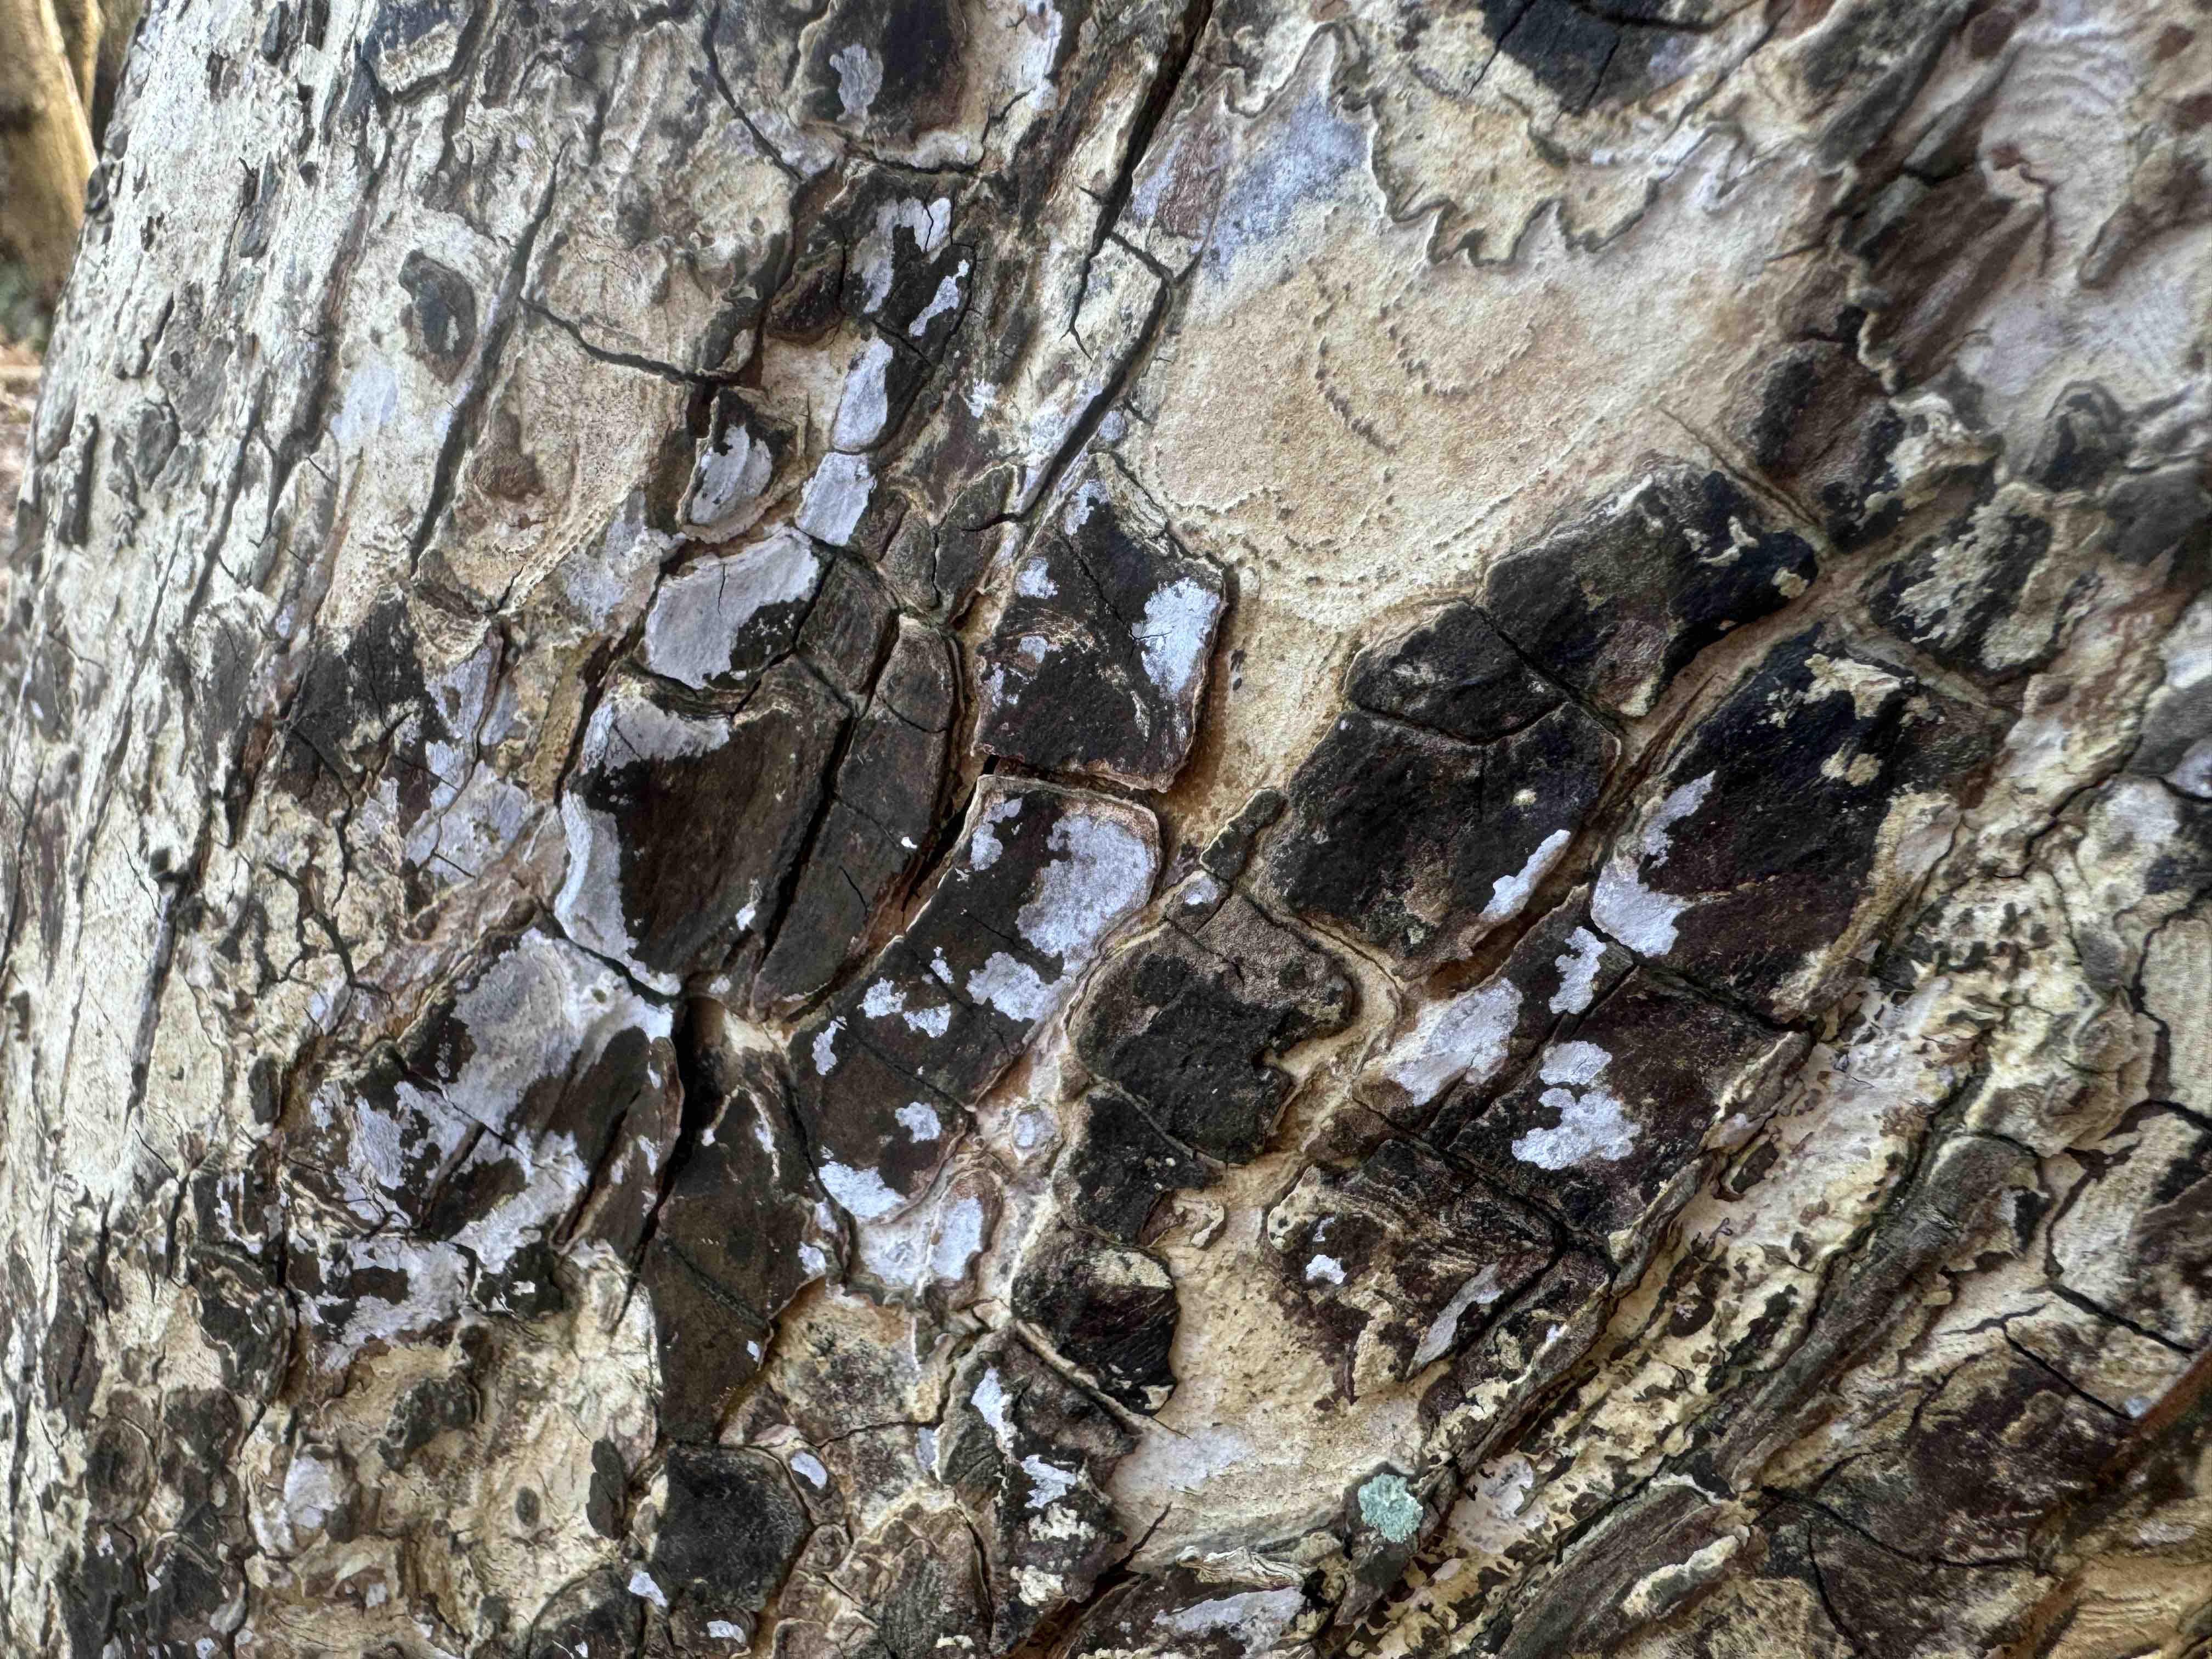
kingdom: Fungi
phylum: Basidiomycota
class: Agaricomycetes
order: Agaricales
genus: Dendrothele
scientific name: Dendrothele acerina
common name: navr-kalkplet
